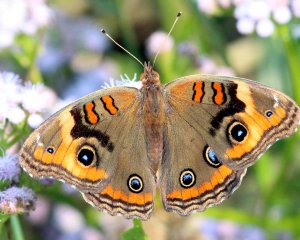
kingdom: Animalia
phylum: Arthropoda
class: Insecta
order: Lepidoptera
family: Nymphalidae
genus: Junonia
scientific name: Junonia lavinia
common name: Tropical Buckeye
